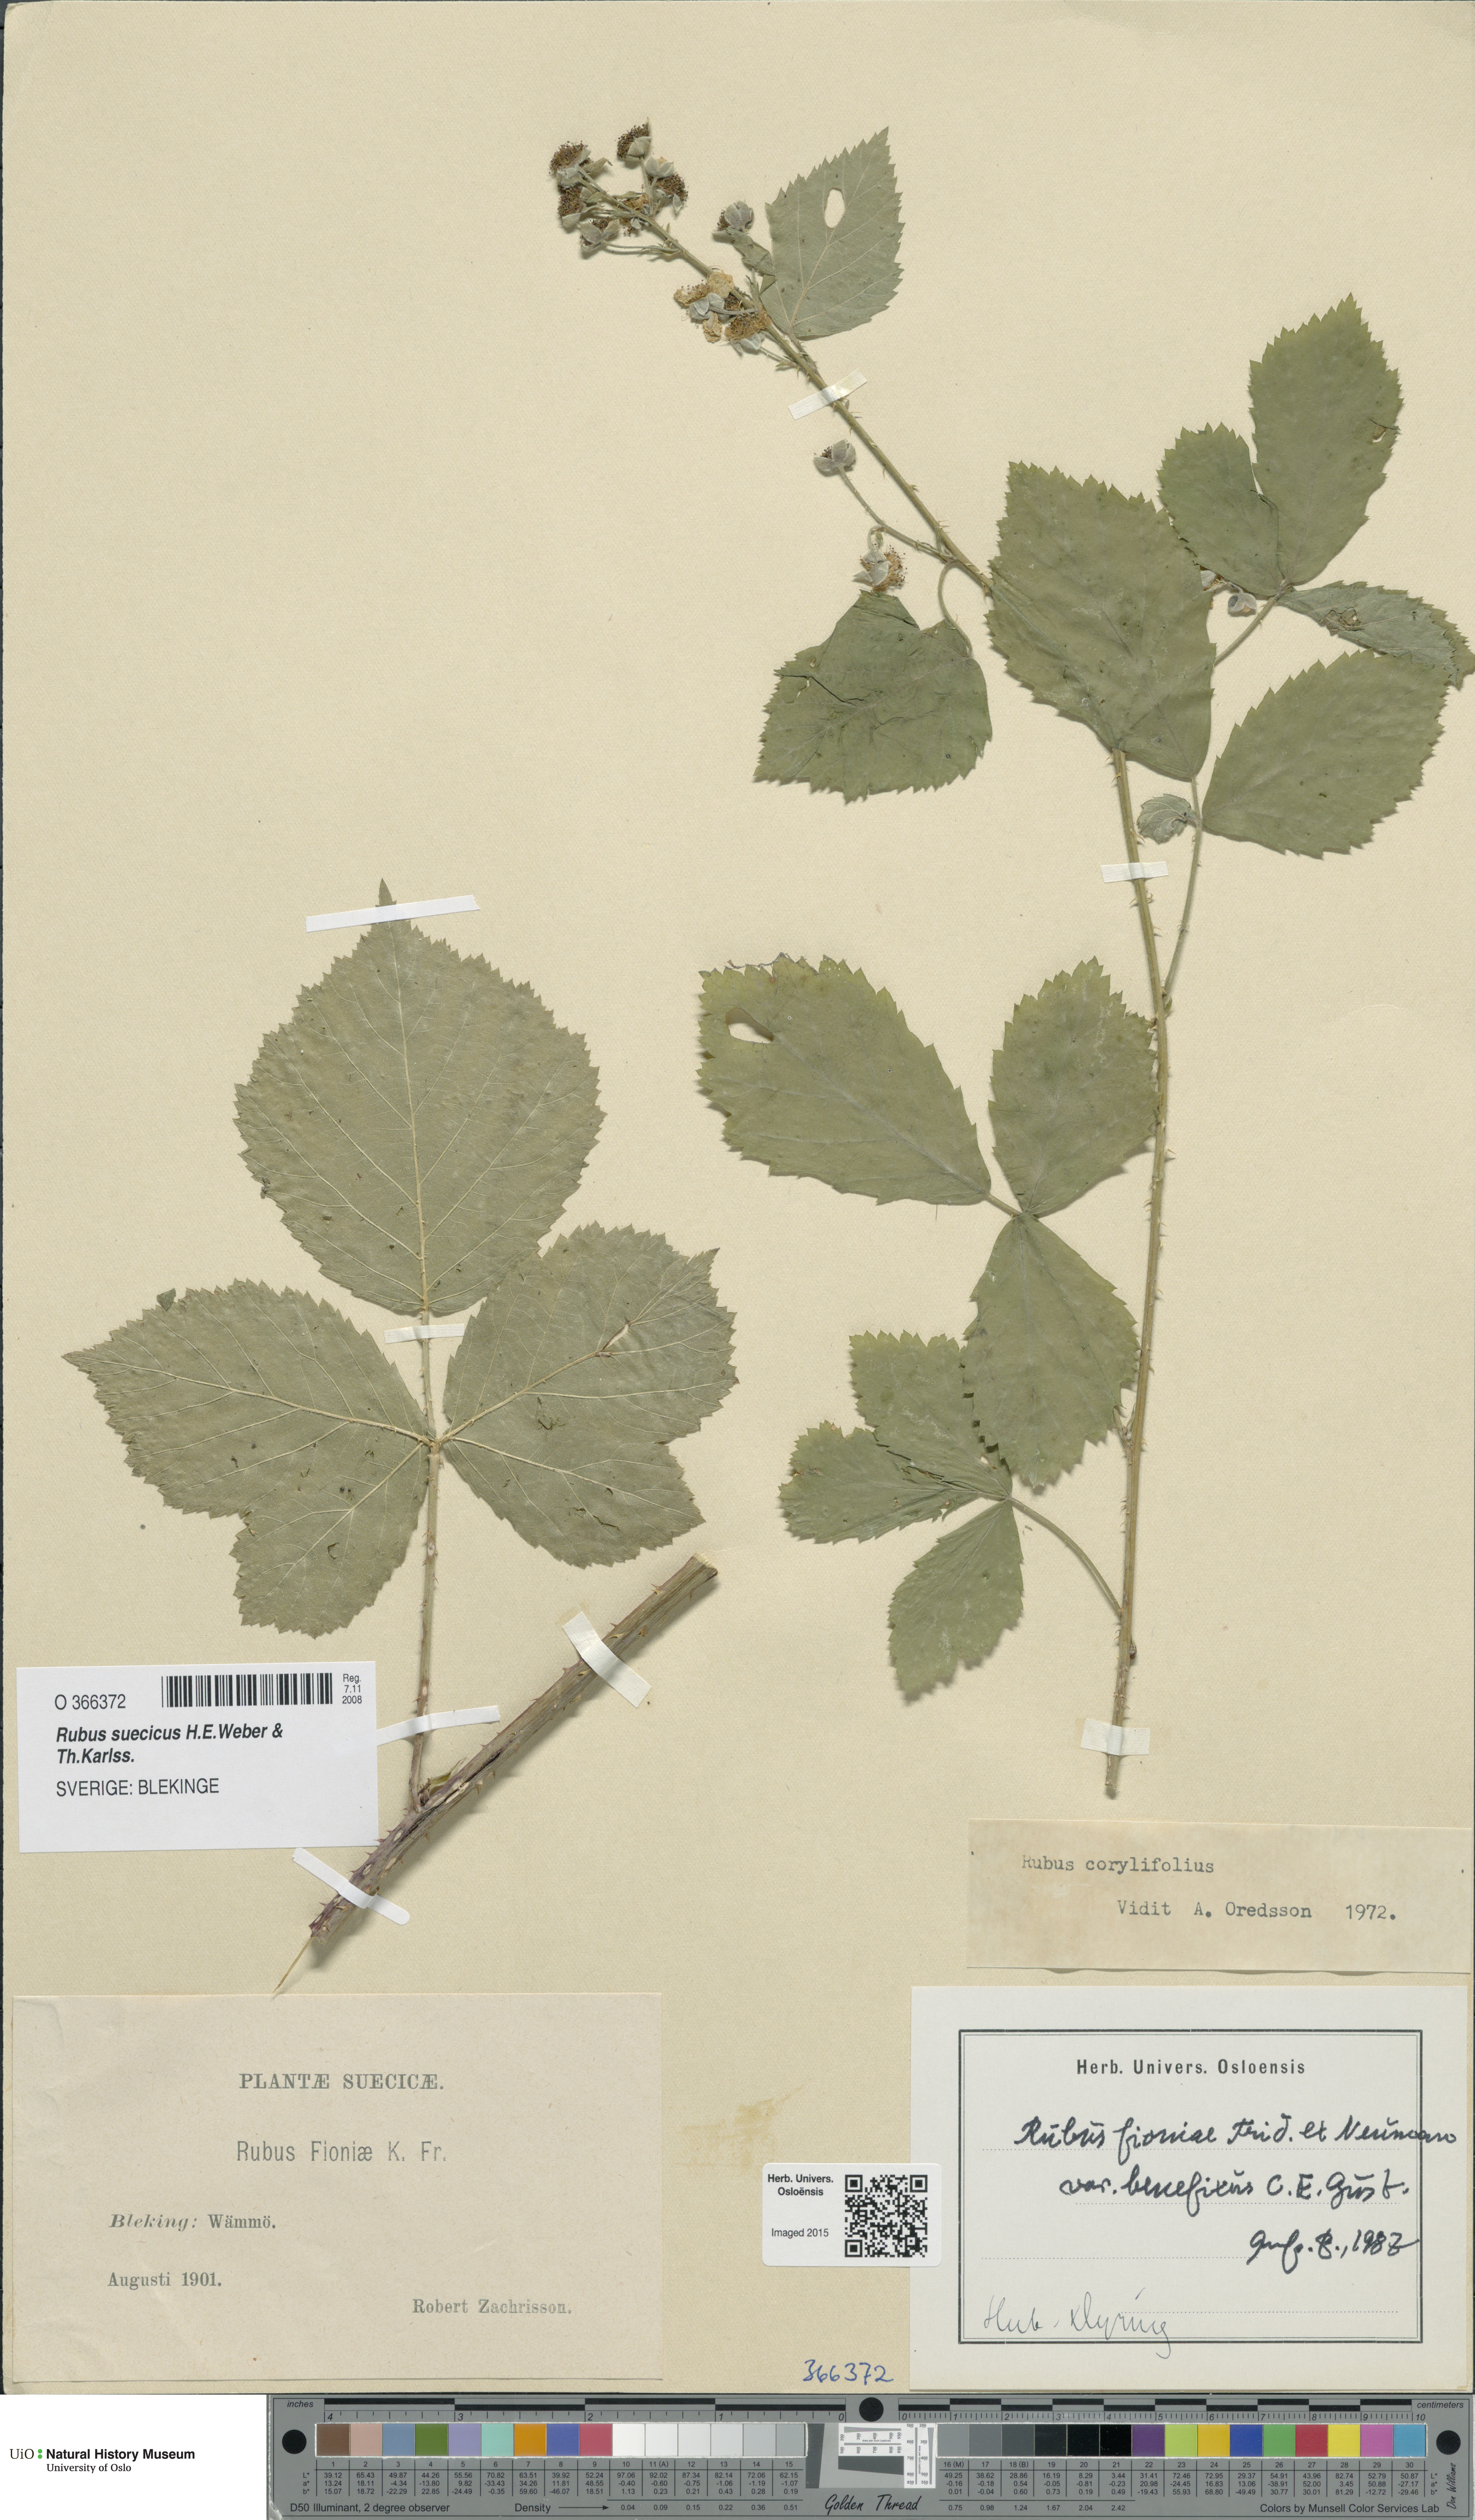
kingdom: Plantae
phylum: Tracheophyta
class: Magnoliopsida
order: Rosales
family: Rosaceae
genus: Rubus
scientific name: Rubus suecicus
